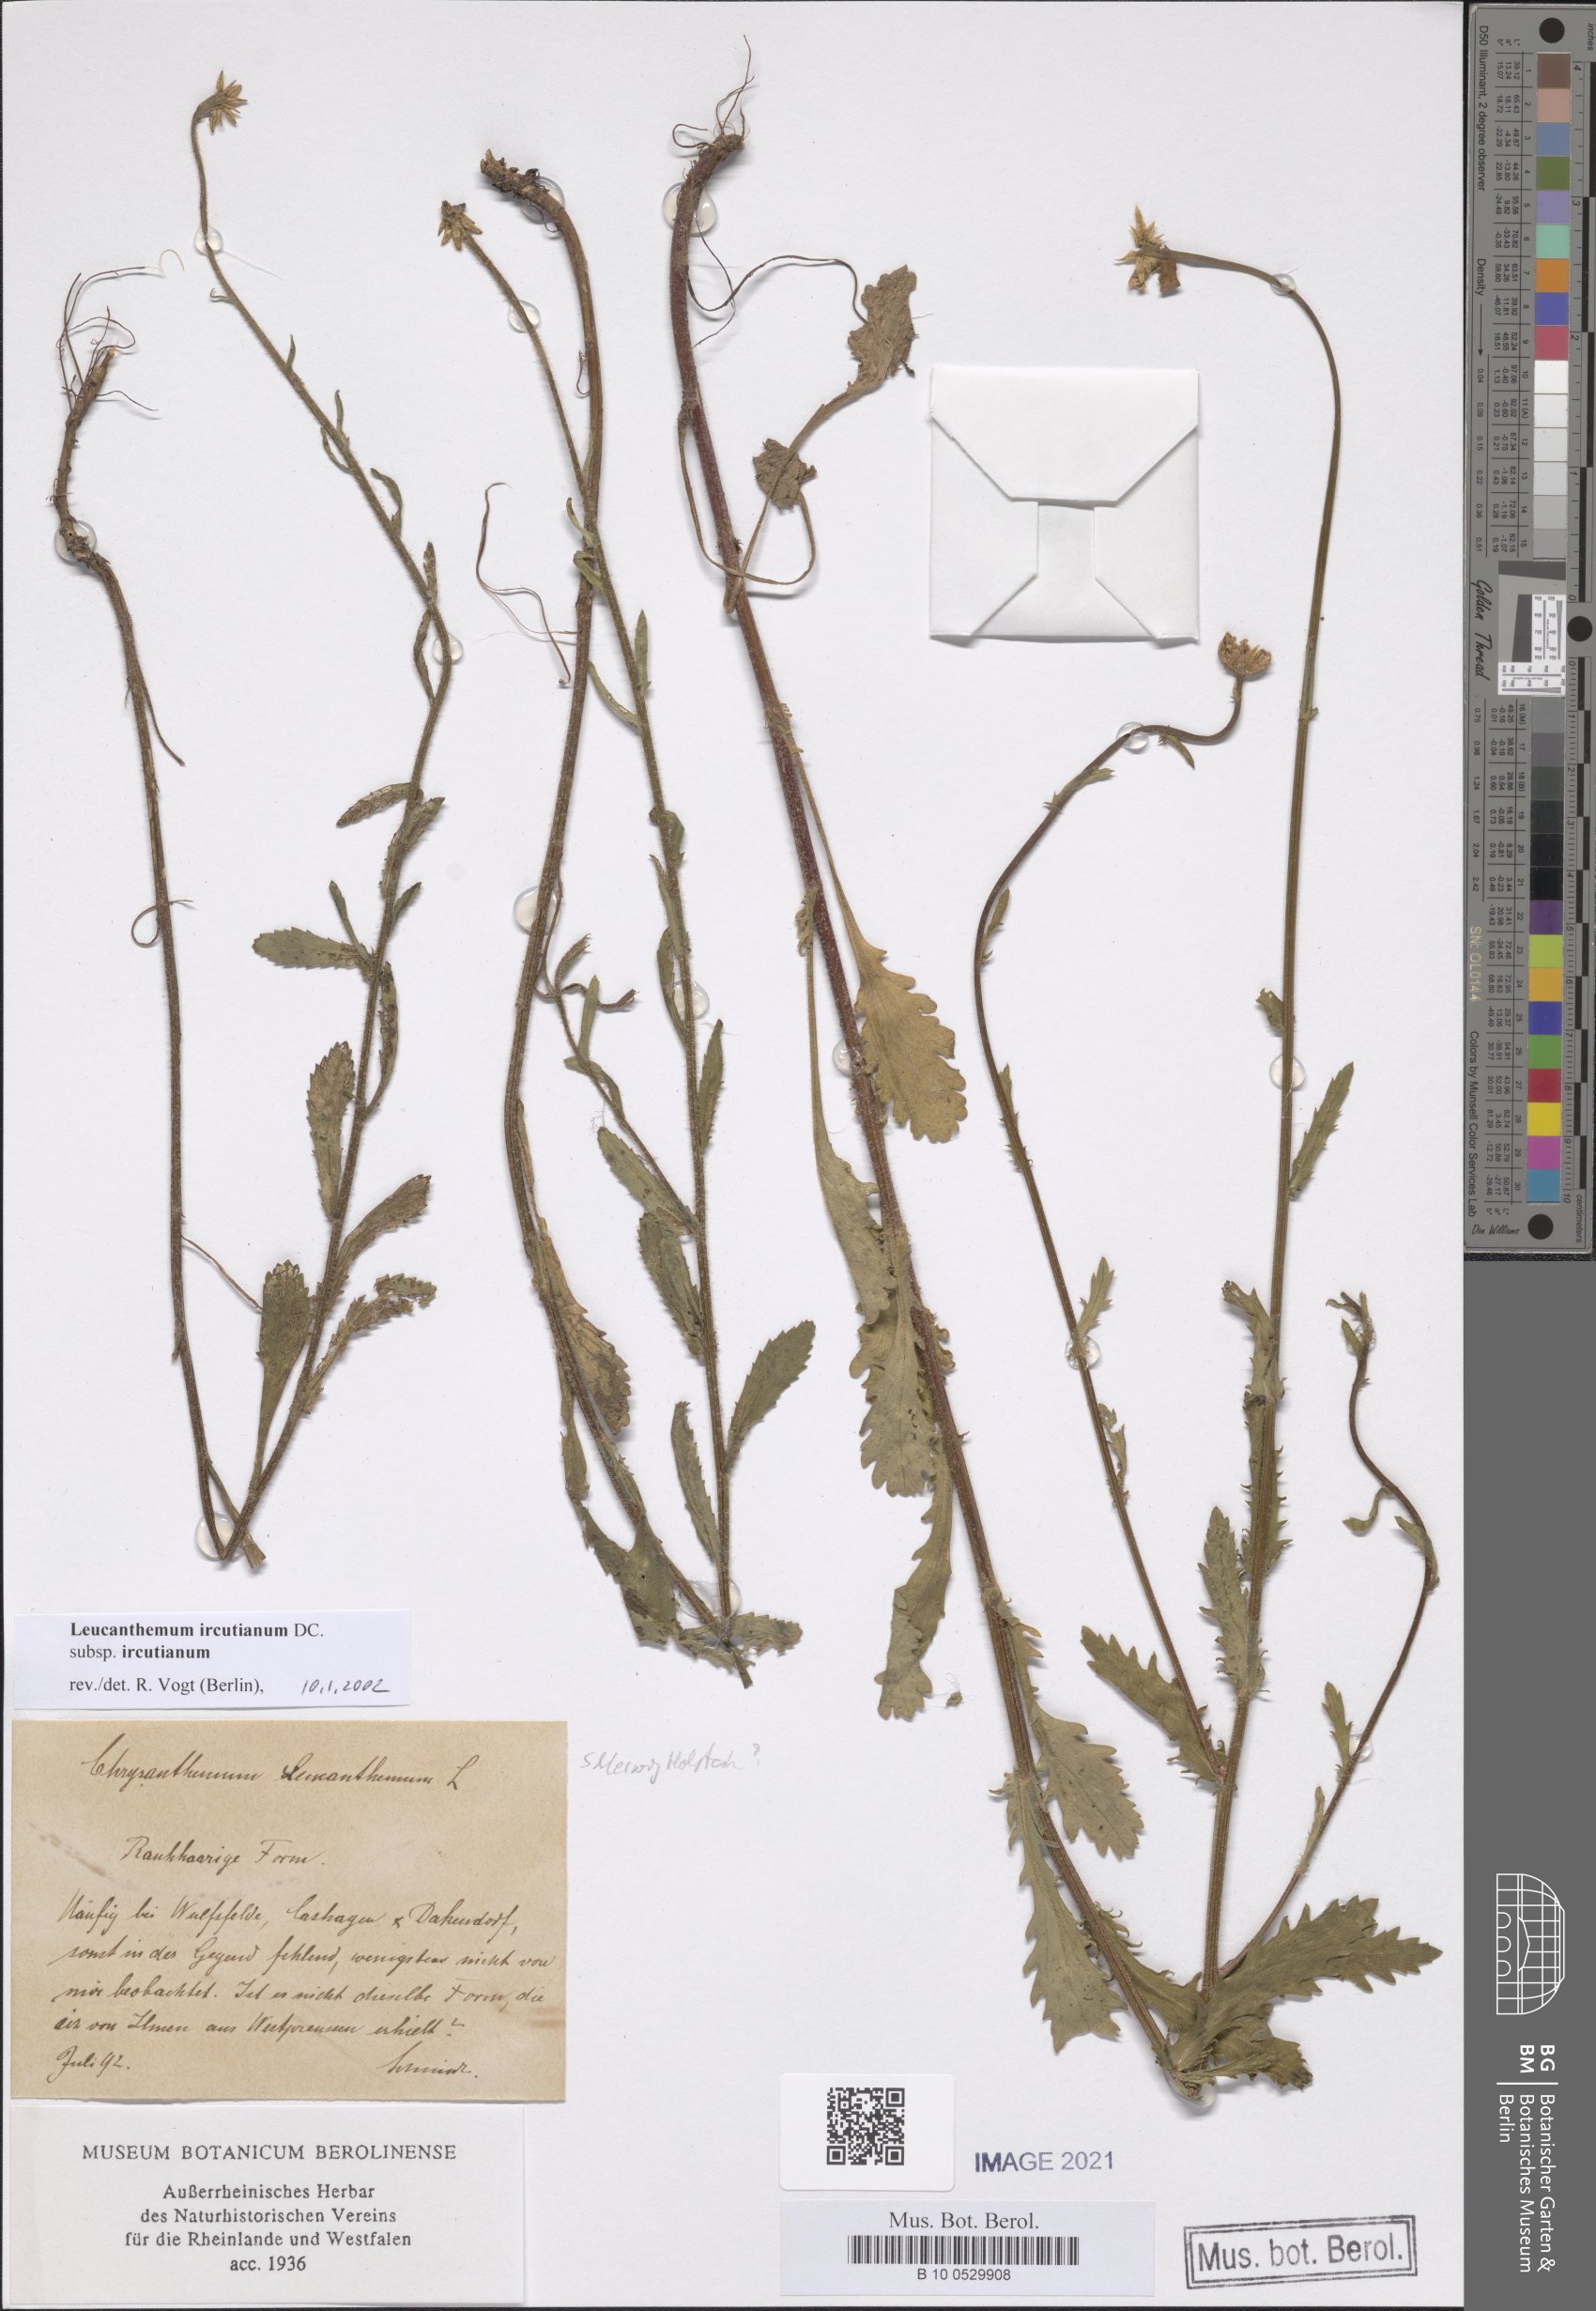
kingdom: Plantae
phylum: Tracheophyta
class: Magnoliopsida
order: Asterales
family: Asteraceae
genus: Leucanthemum
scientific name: Leucanthemum ircutianum
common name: Daisy
